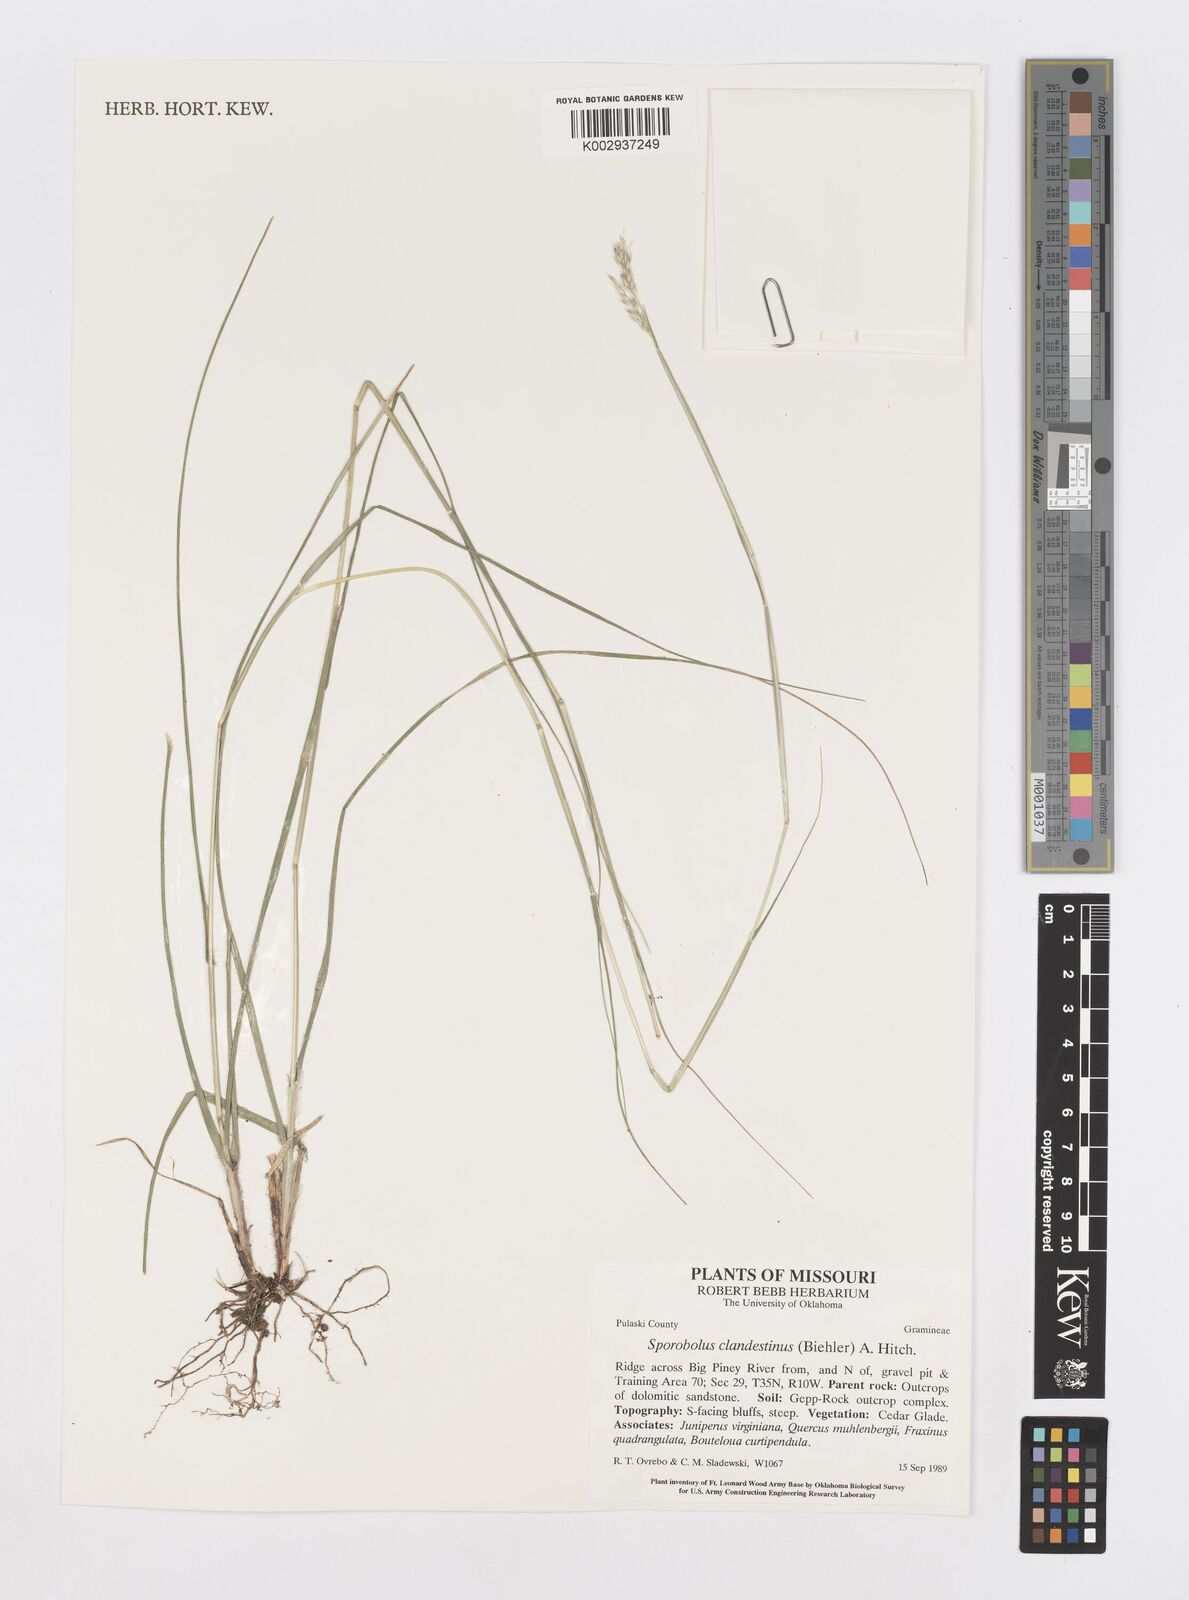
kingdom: Plantae
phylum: Tracheophyta
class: Liliopsida
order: Poales
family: Poaceae
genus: Sporobolus
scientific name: Sporobolus clandestinus
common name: Hidden dropseed
